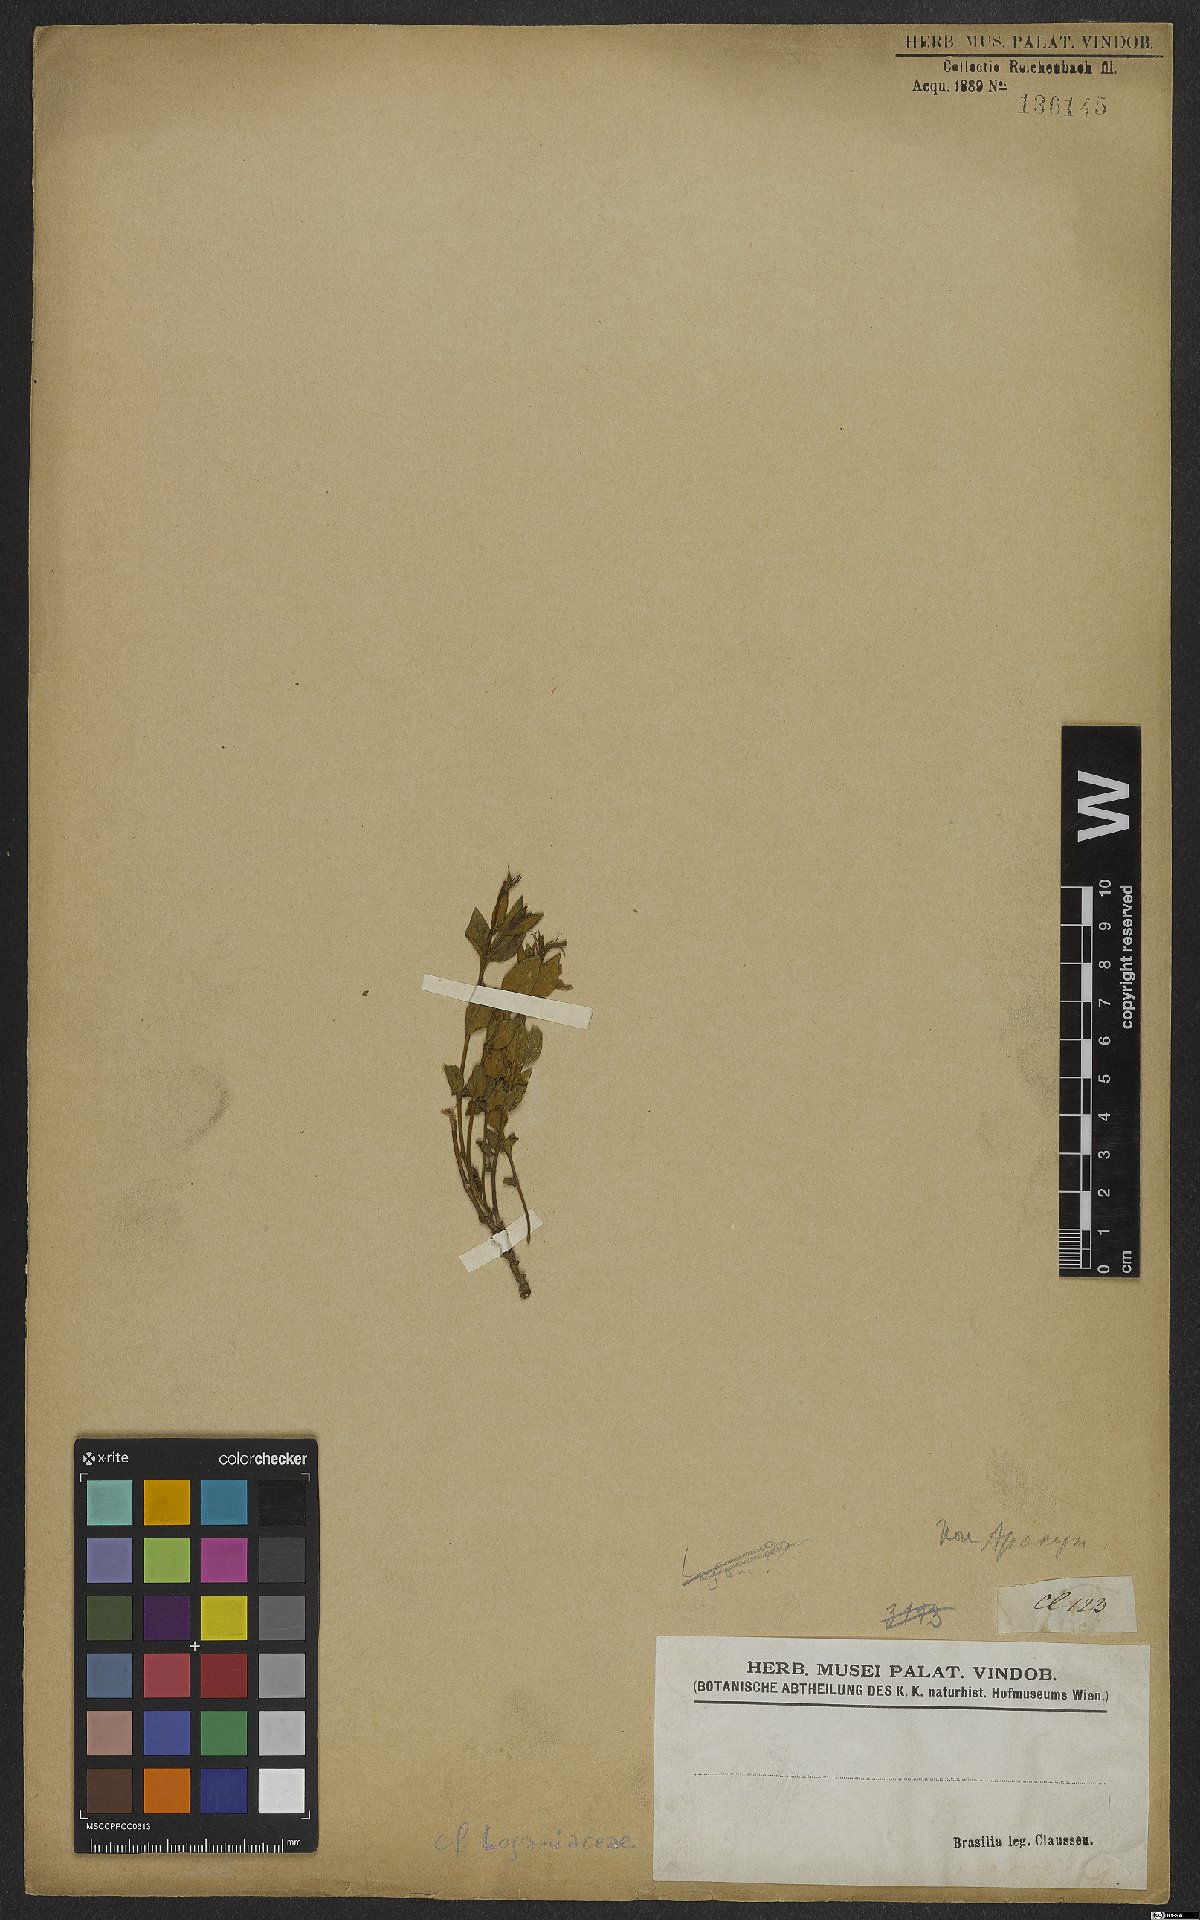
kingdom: Plantae
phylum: Tracheophyta
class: Magnoliopsida
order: Gentianales
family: Loganiaceae
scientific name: Loganiaceae
